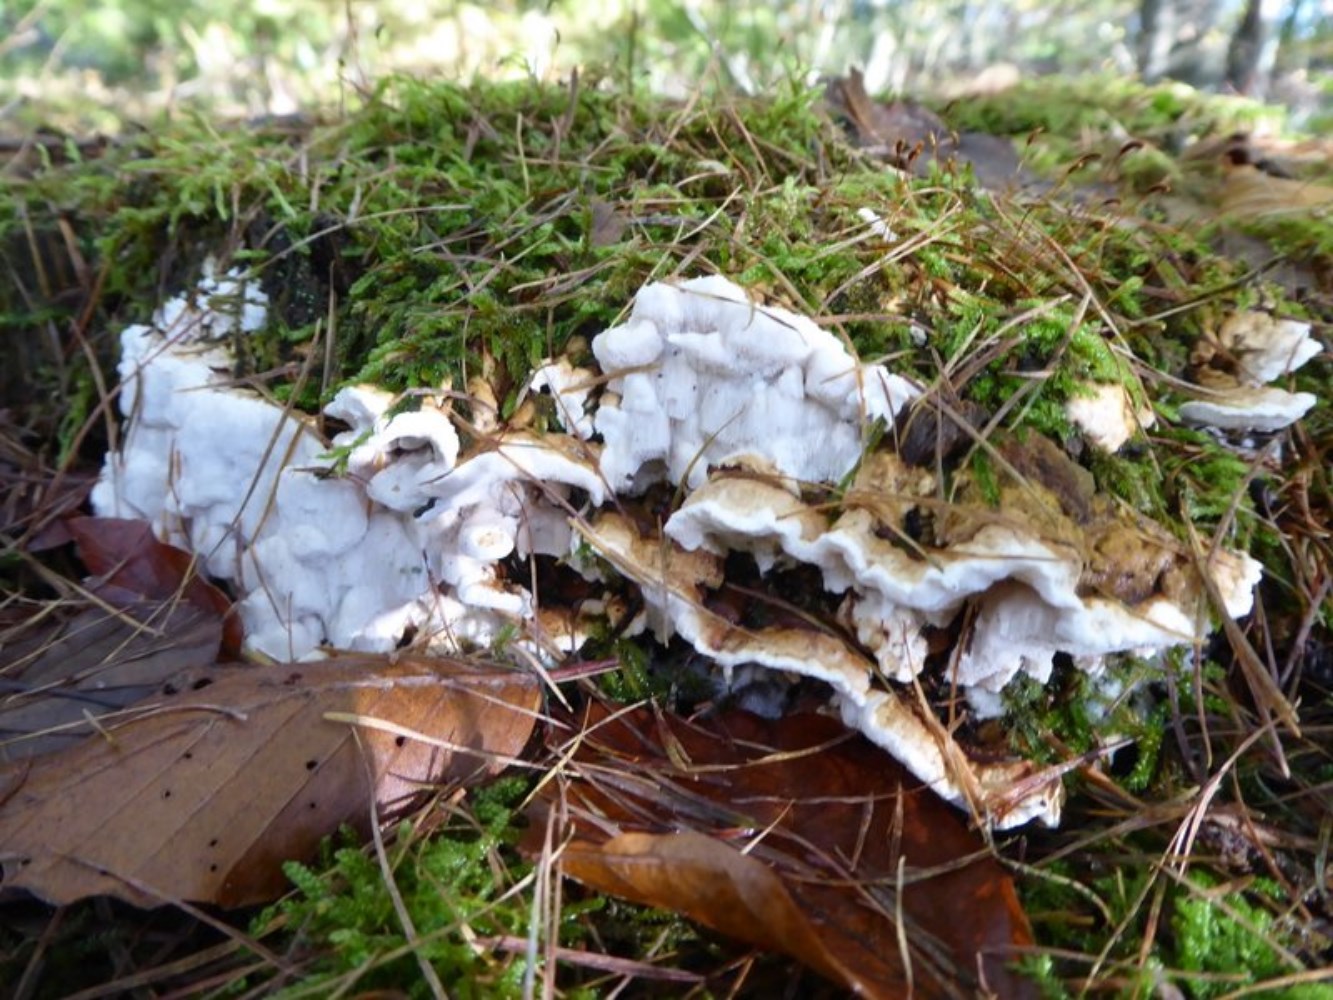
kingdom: Fungi
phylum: Basidiomycota
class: Agaricomycetes
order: Russulales
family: Bondarzewiaceae
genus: Heterobasidion
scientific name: Heterobasidion annosum
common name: almindelig rodfordærver
